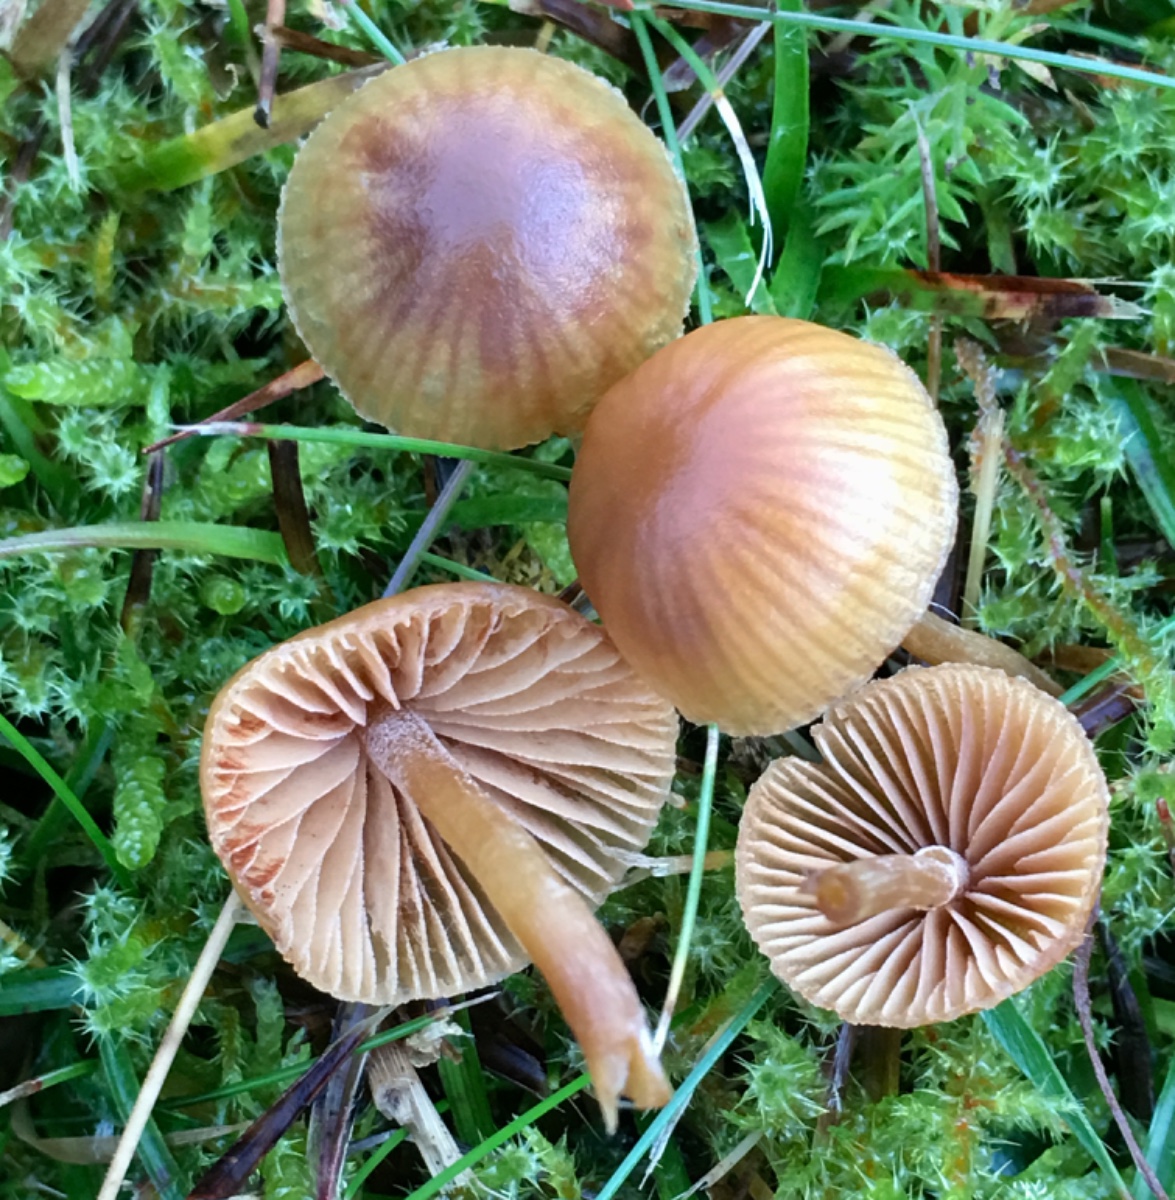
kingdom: Fungi
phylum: Basidiomycota
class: Agaricomycetes
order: Agaricales
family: Hymenogastraceae
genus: Galerina
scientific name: Galerina
